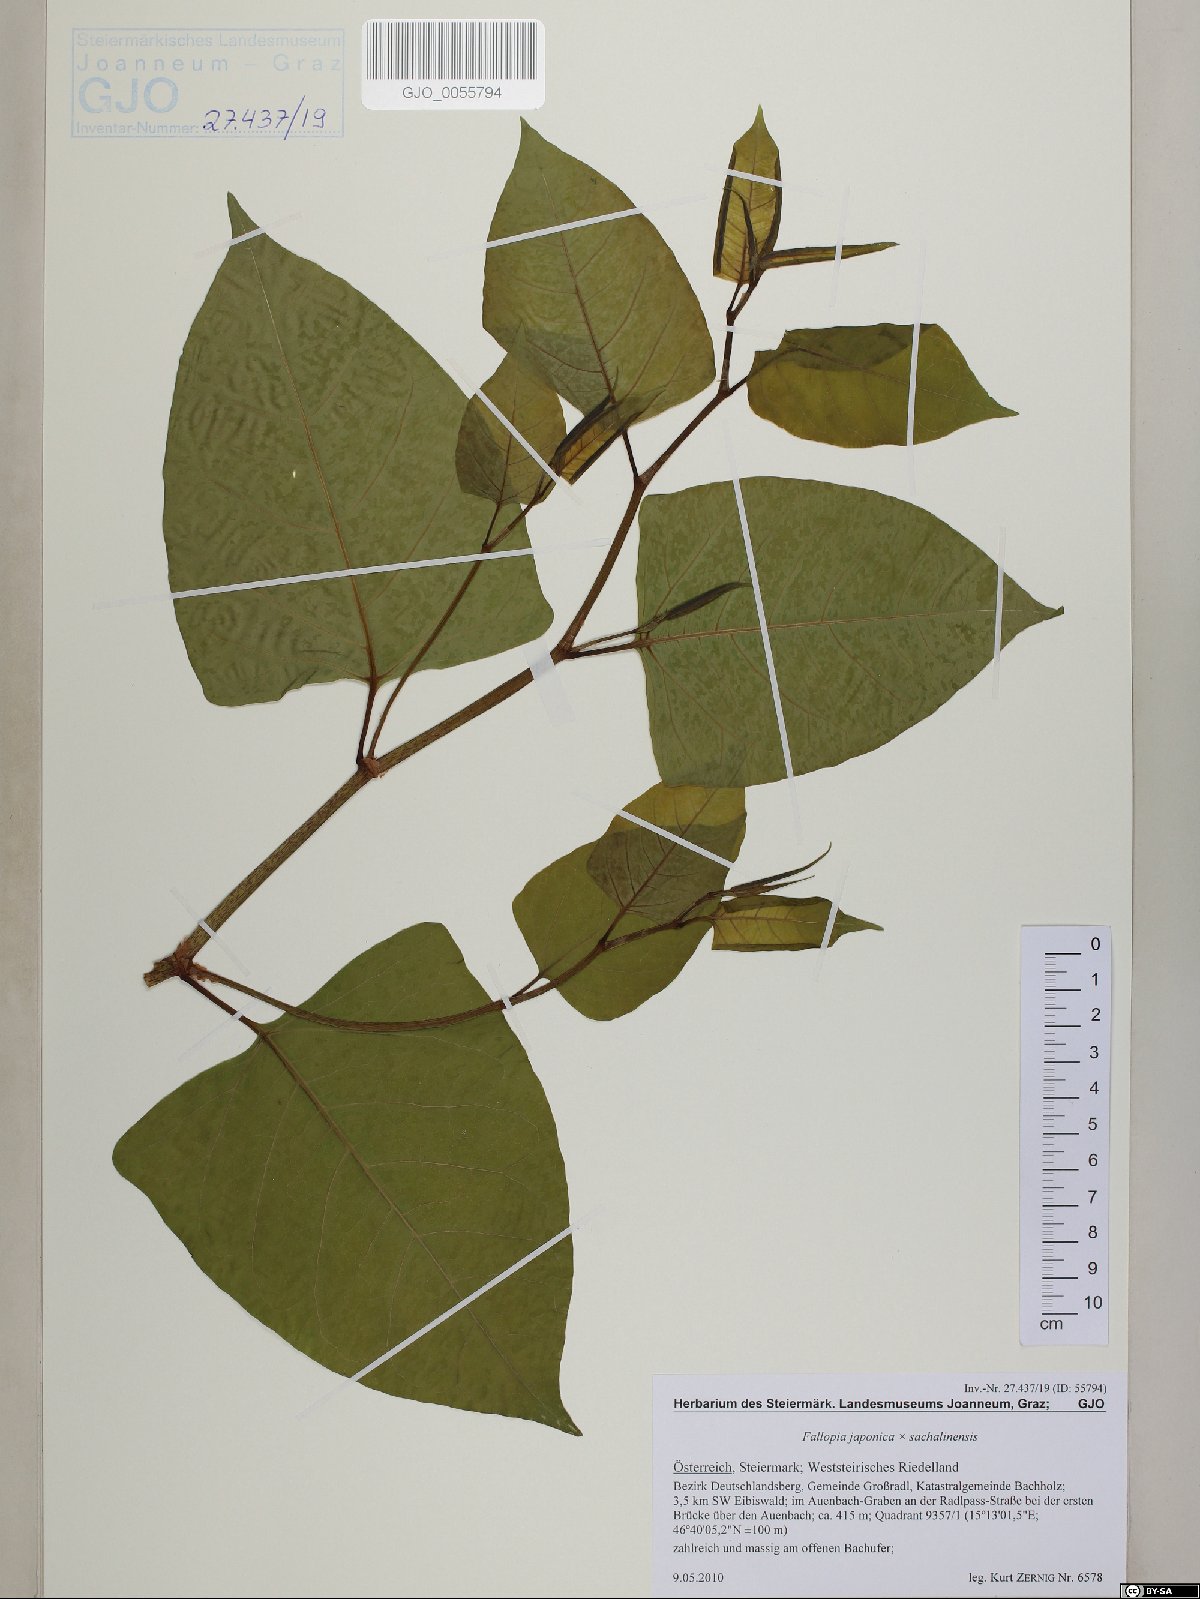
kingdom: Plantae
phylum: Tracheophyta
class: Magnoliopsida
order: Caryophyllales
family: Polygonaceae
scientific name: Polygonaceae
